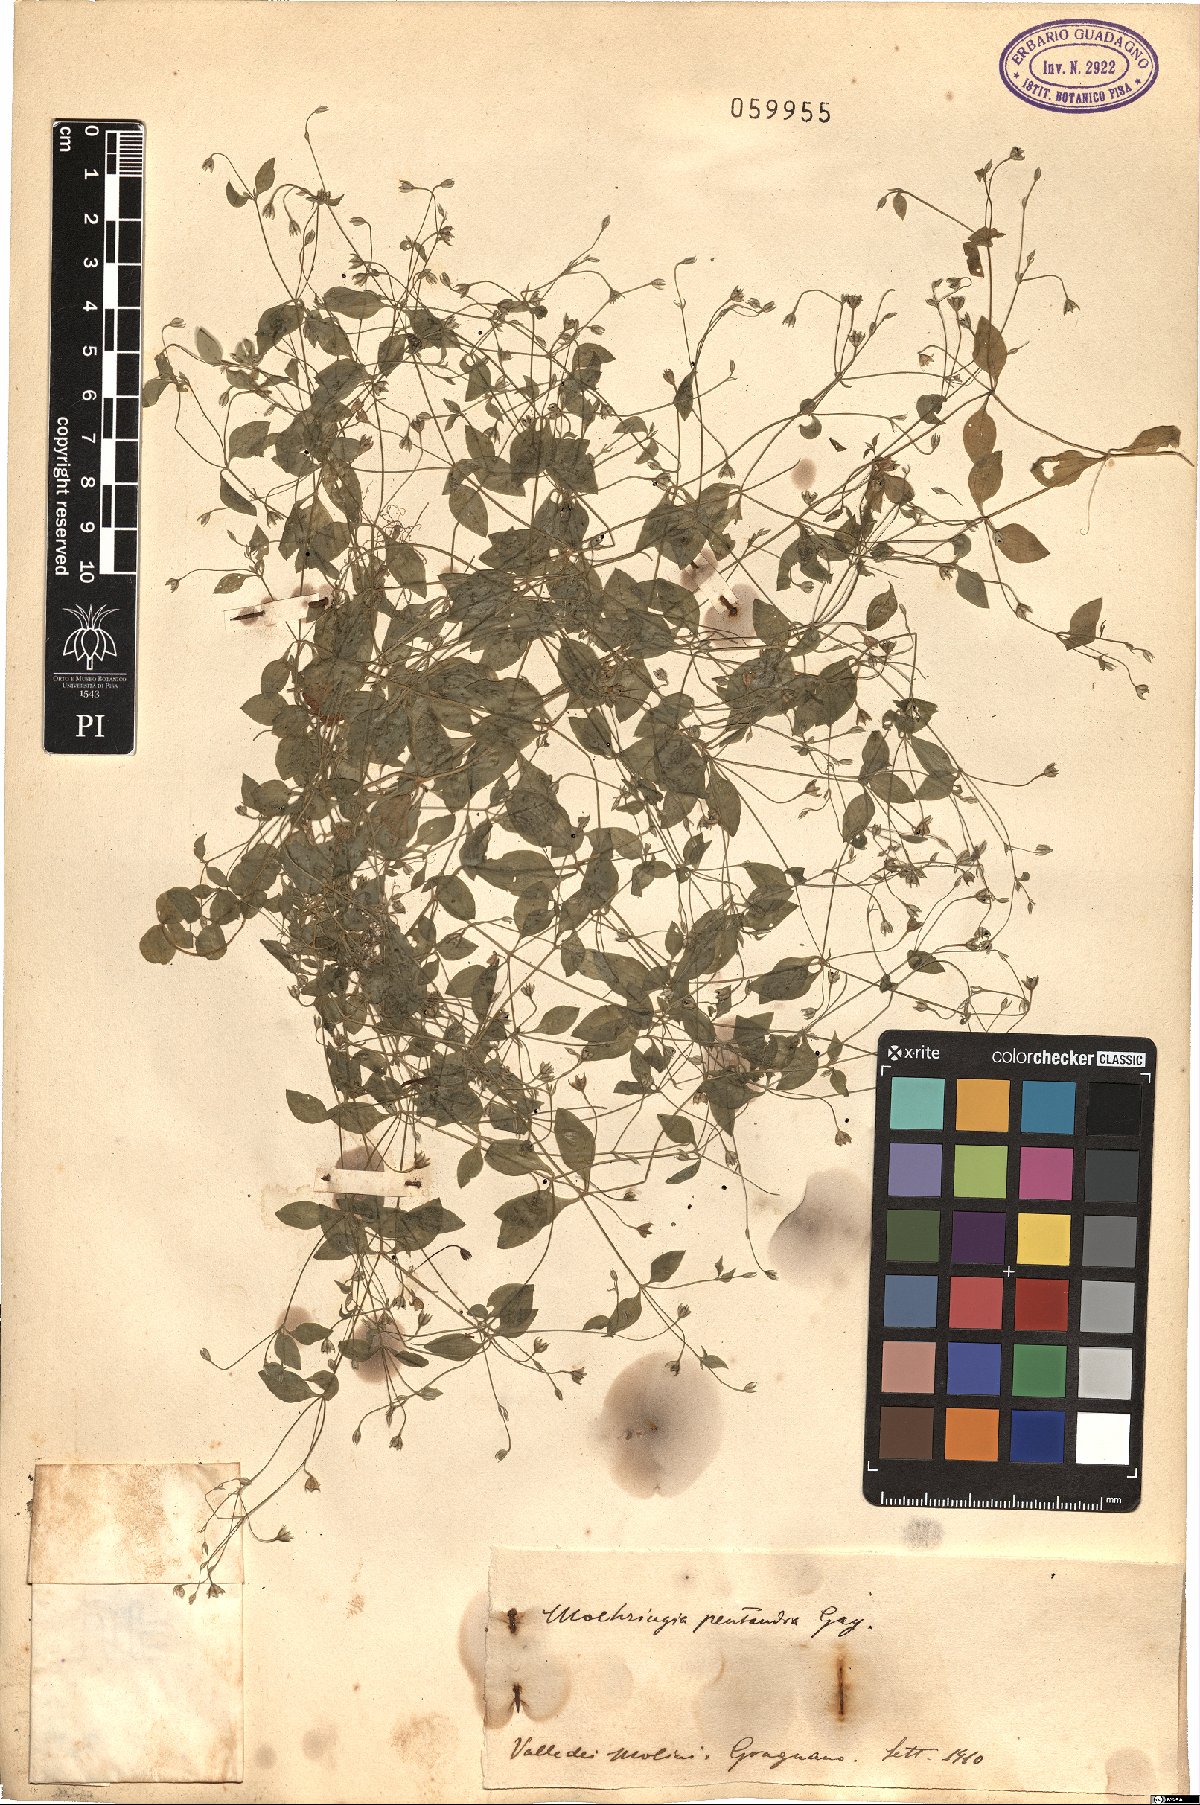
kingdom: Plantae
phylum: Tracheophyta
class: Magnoliopsida
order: Caryophyllales
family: Caryophyllaceae
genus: Moehringia
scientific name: Moehringia pentandra
